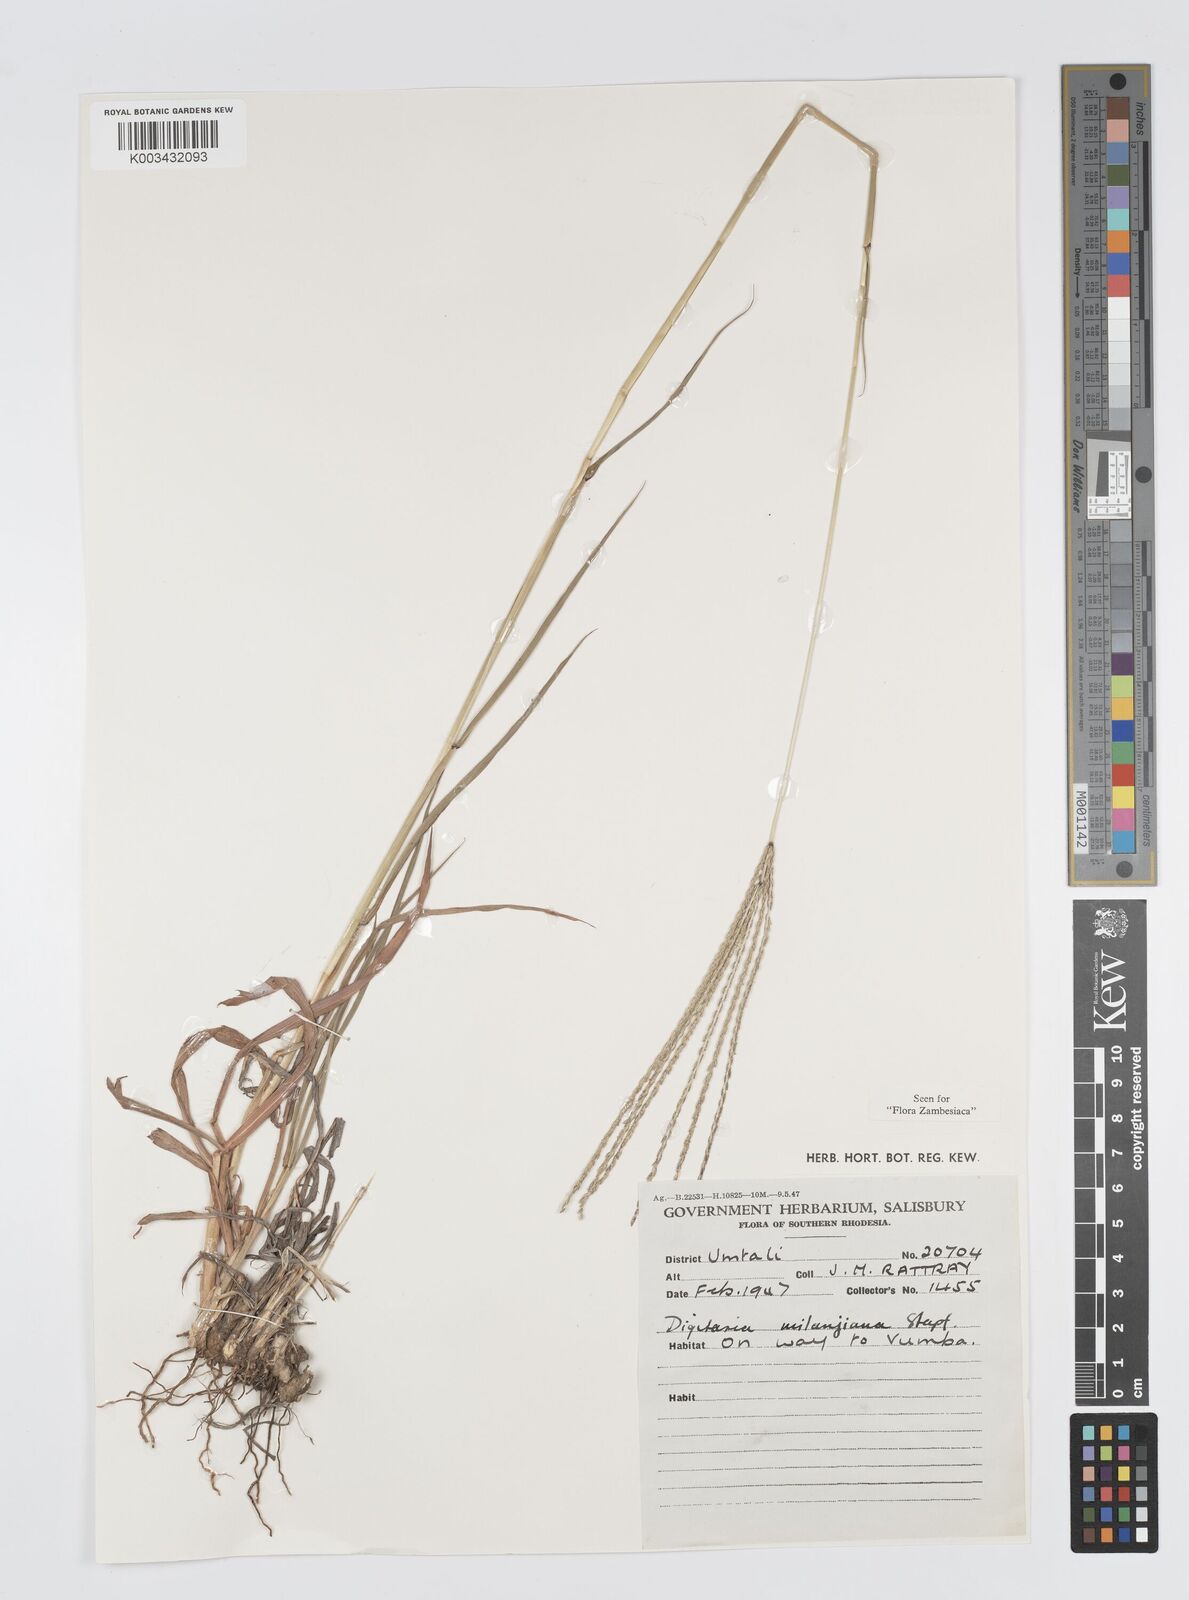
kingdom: Plantae
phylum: Tracheophyta
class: Liliopsida
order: Poales
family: Poaceae
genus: Digitaria
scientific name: Digitaria milanjiana
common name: Madagascar crabgrass
